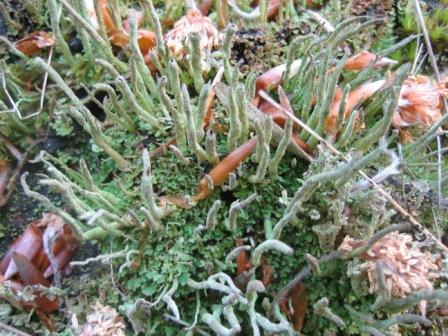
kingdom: Fungi
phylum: Ascomycota
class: Lecanoromycetes
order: Lecanorales
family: Cladoniaceae
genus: Cladonia
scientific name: Cladonia coniocraea
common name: træfods-bægerlav
